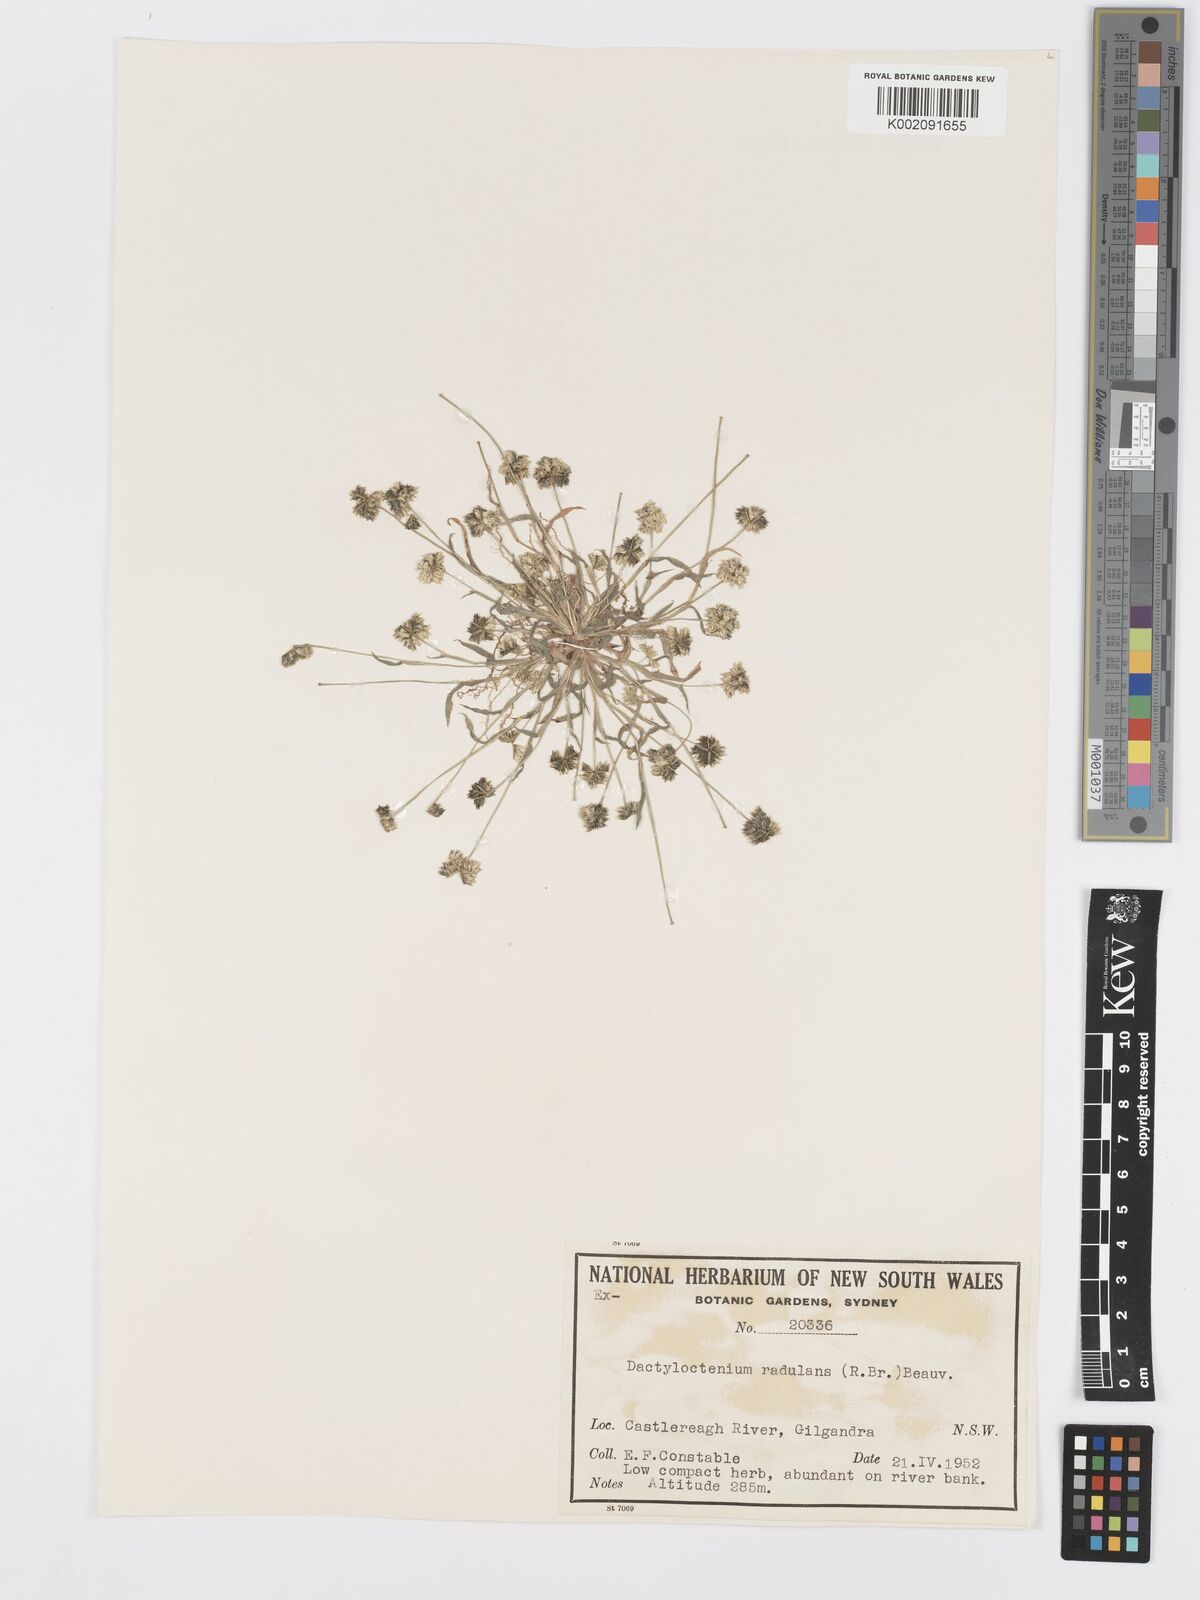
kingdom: Plantae
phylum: Tracheophyta
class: Liliopsida
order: Poales
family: Poaceae
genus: Dactyloctenium
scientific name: Dactyloctenium radulans
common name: Button-grass
